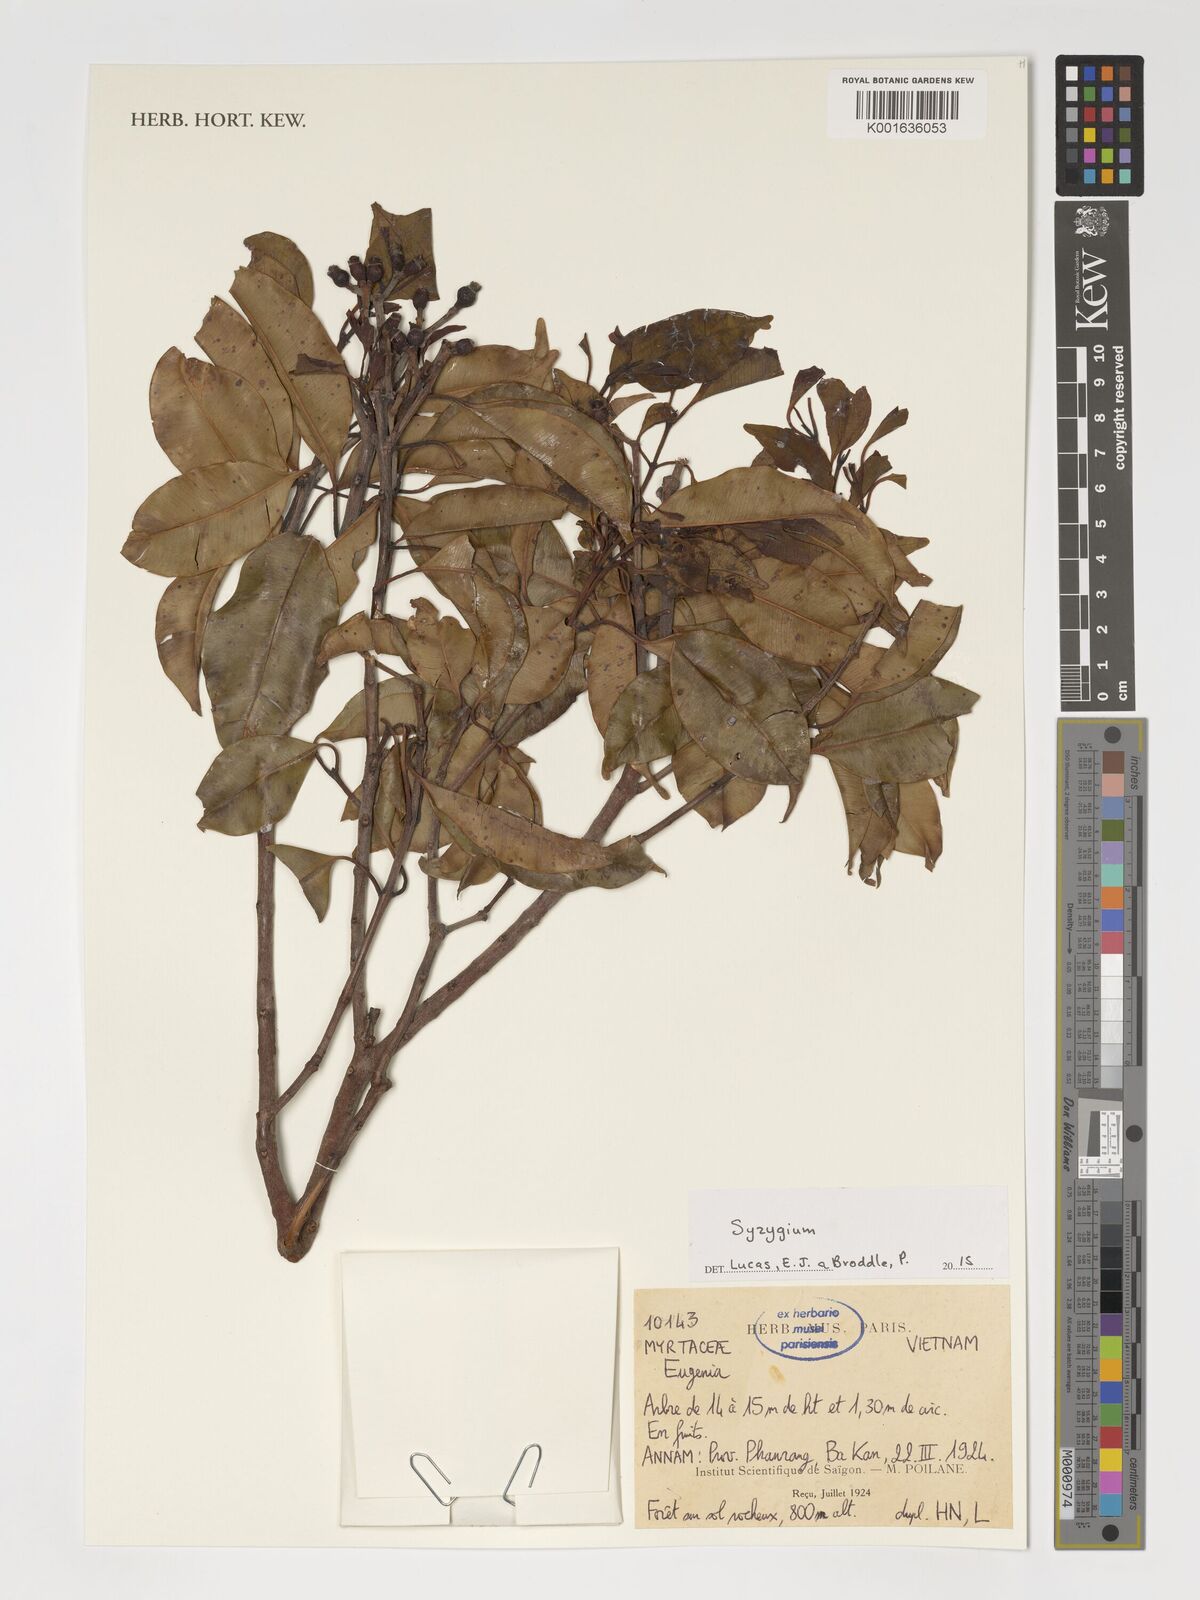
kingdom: Plantae
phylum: Tracheophyta
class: Magnoliopsida
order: Myrtales
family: Myrtaceae
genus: Syzygium
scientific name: Syzygium
